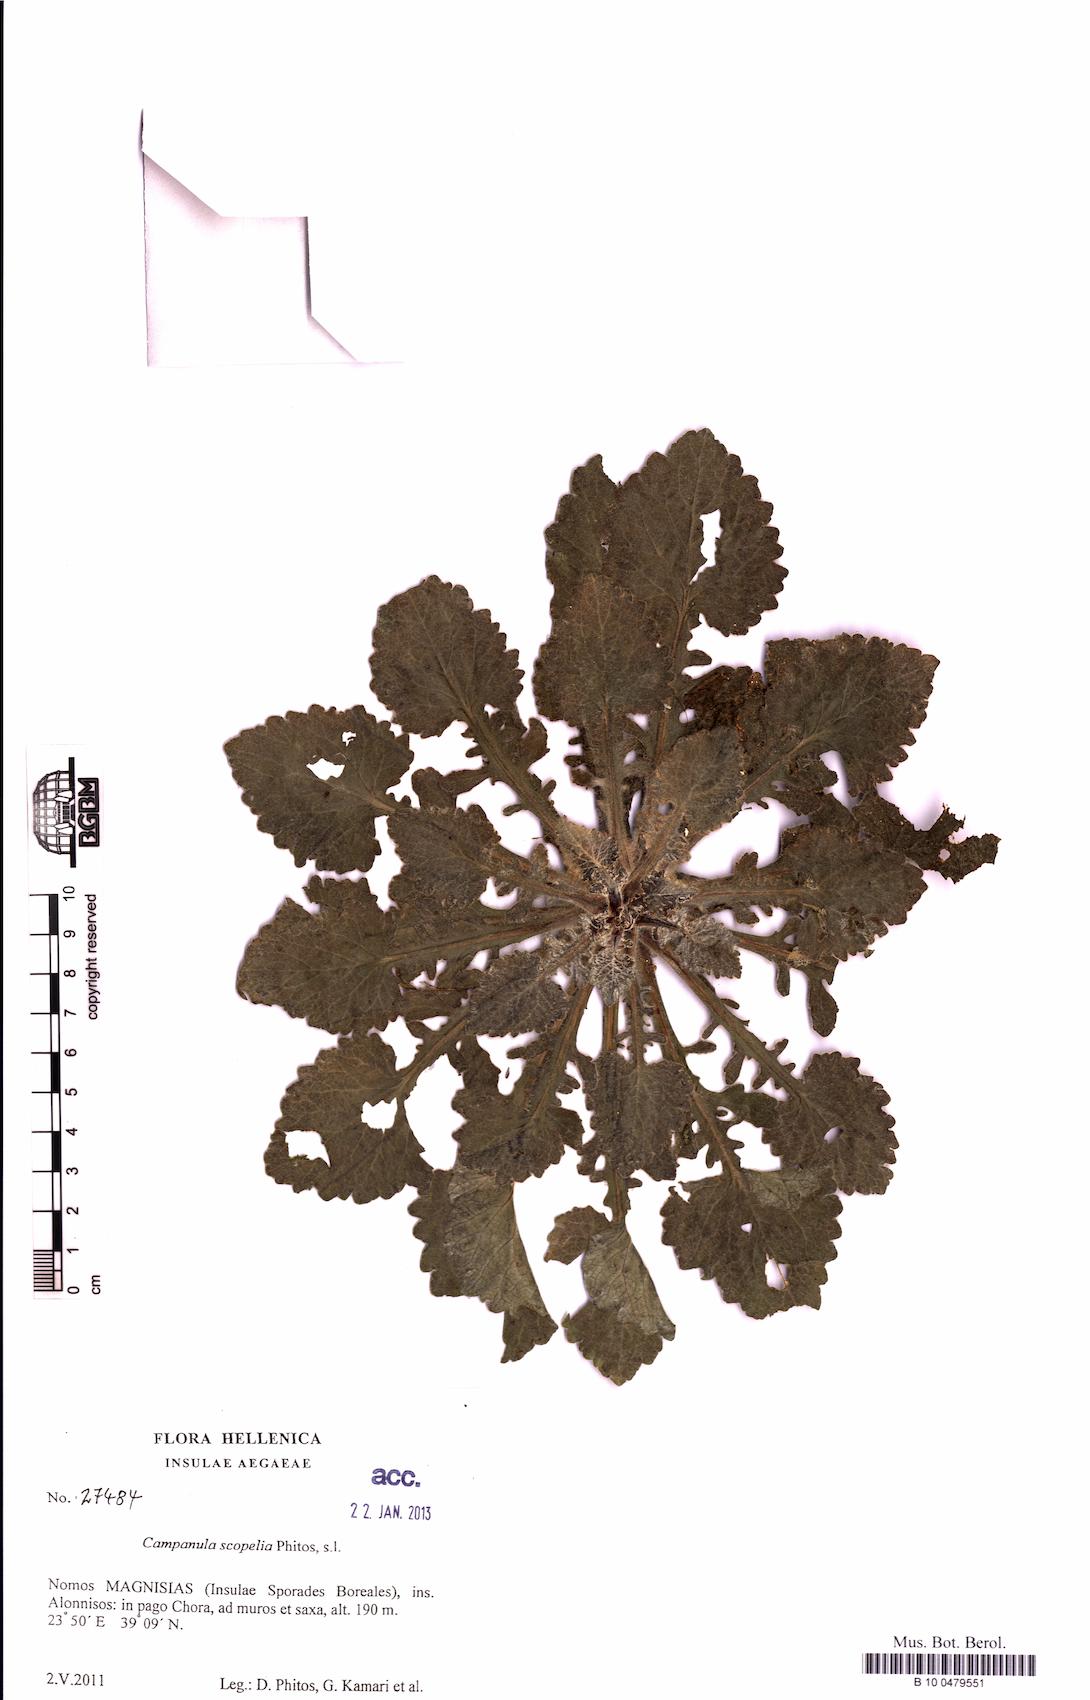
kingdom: Plantae
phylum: Tracheophyta
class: Magnoliopsida
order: Asterales
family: Campanulaceae
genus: Campanula
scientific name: Campanula scopelia
